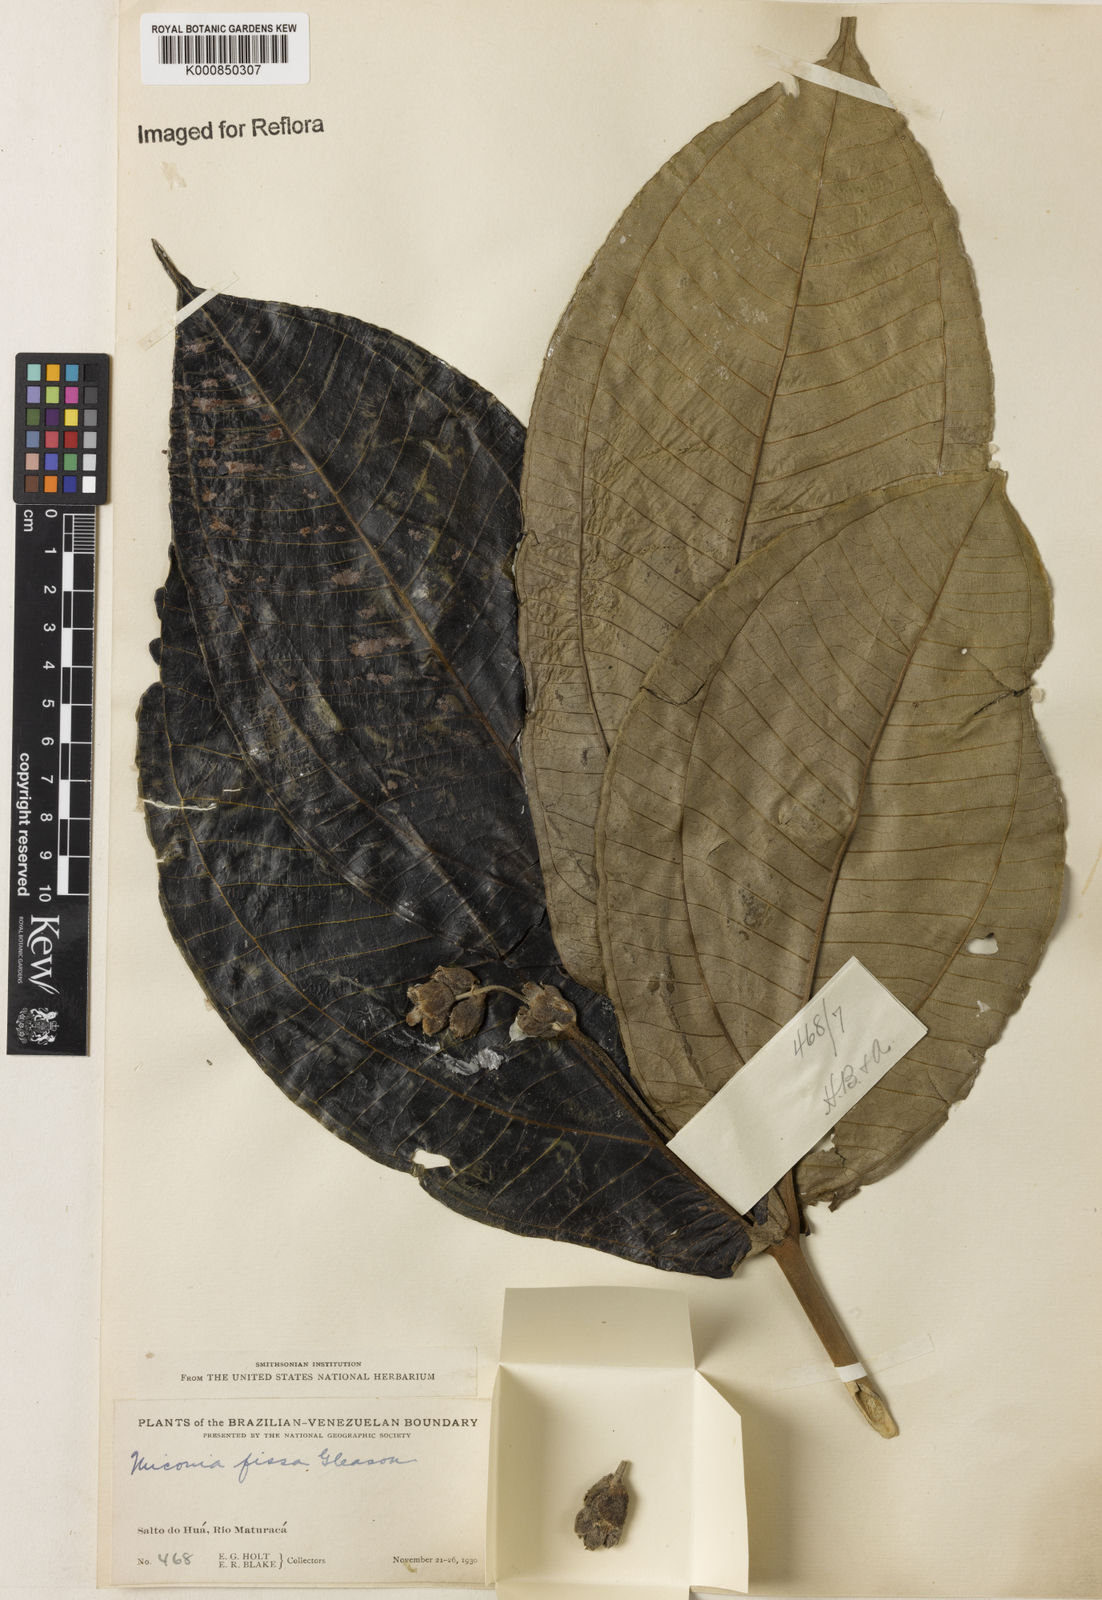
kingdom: Plantae
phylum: Tracheophyta
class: Magnoliopsida
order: Myrtales
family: Melastomataceae
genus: Miconia
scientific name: Miconia fissa
